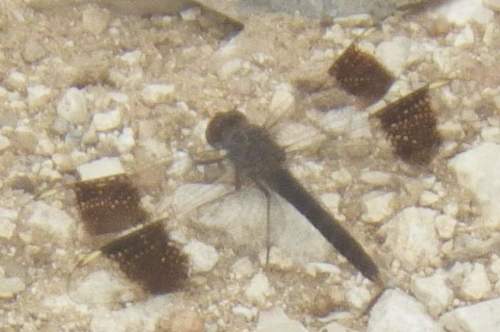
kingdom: Animalia
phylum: Arthropoda
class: Insecta
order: Odonata
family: Libellulidae
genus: Brachythemis
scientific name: Brachythemis impartita
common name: Banded groundling
